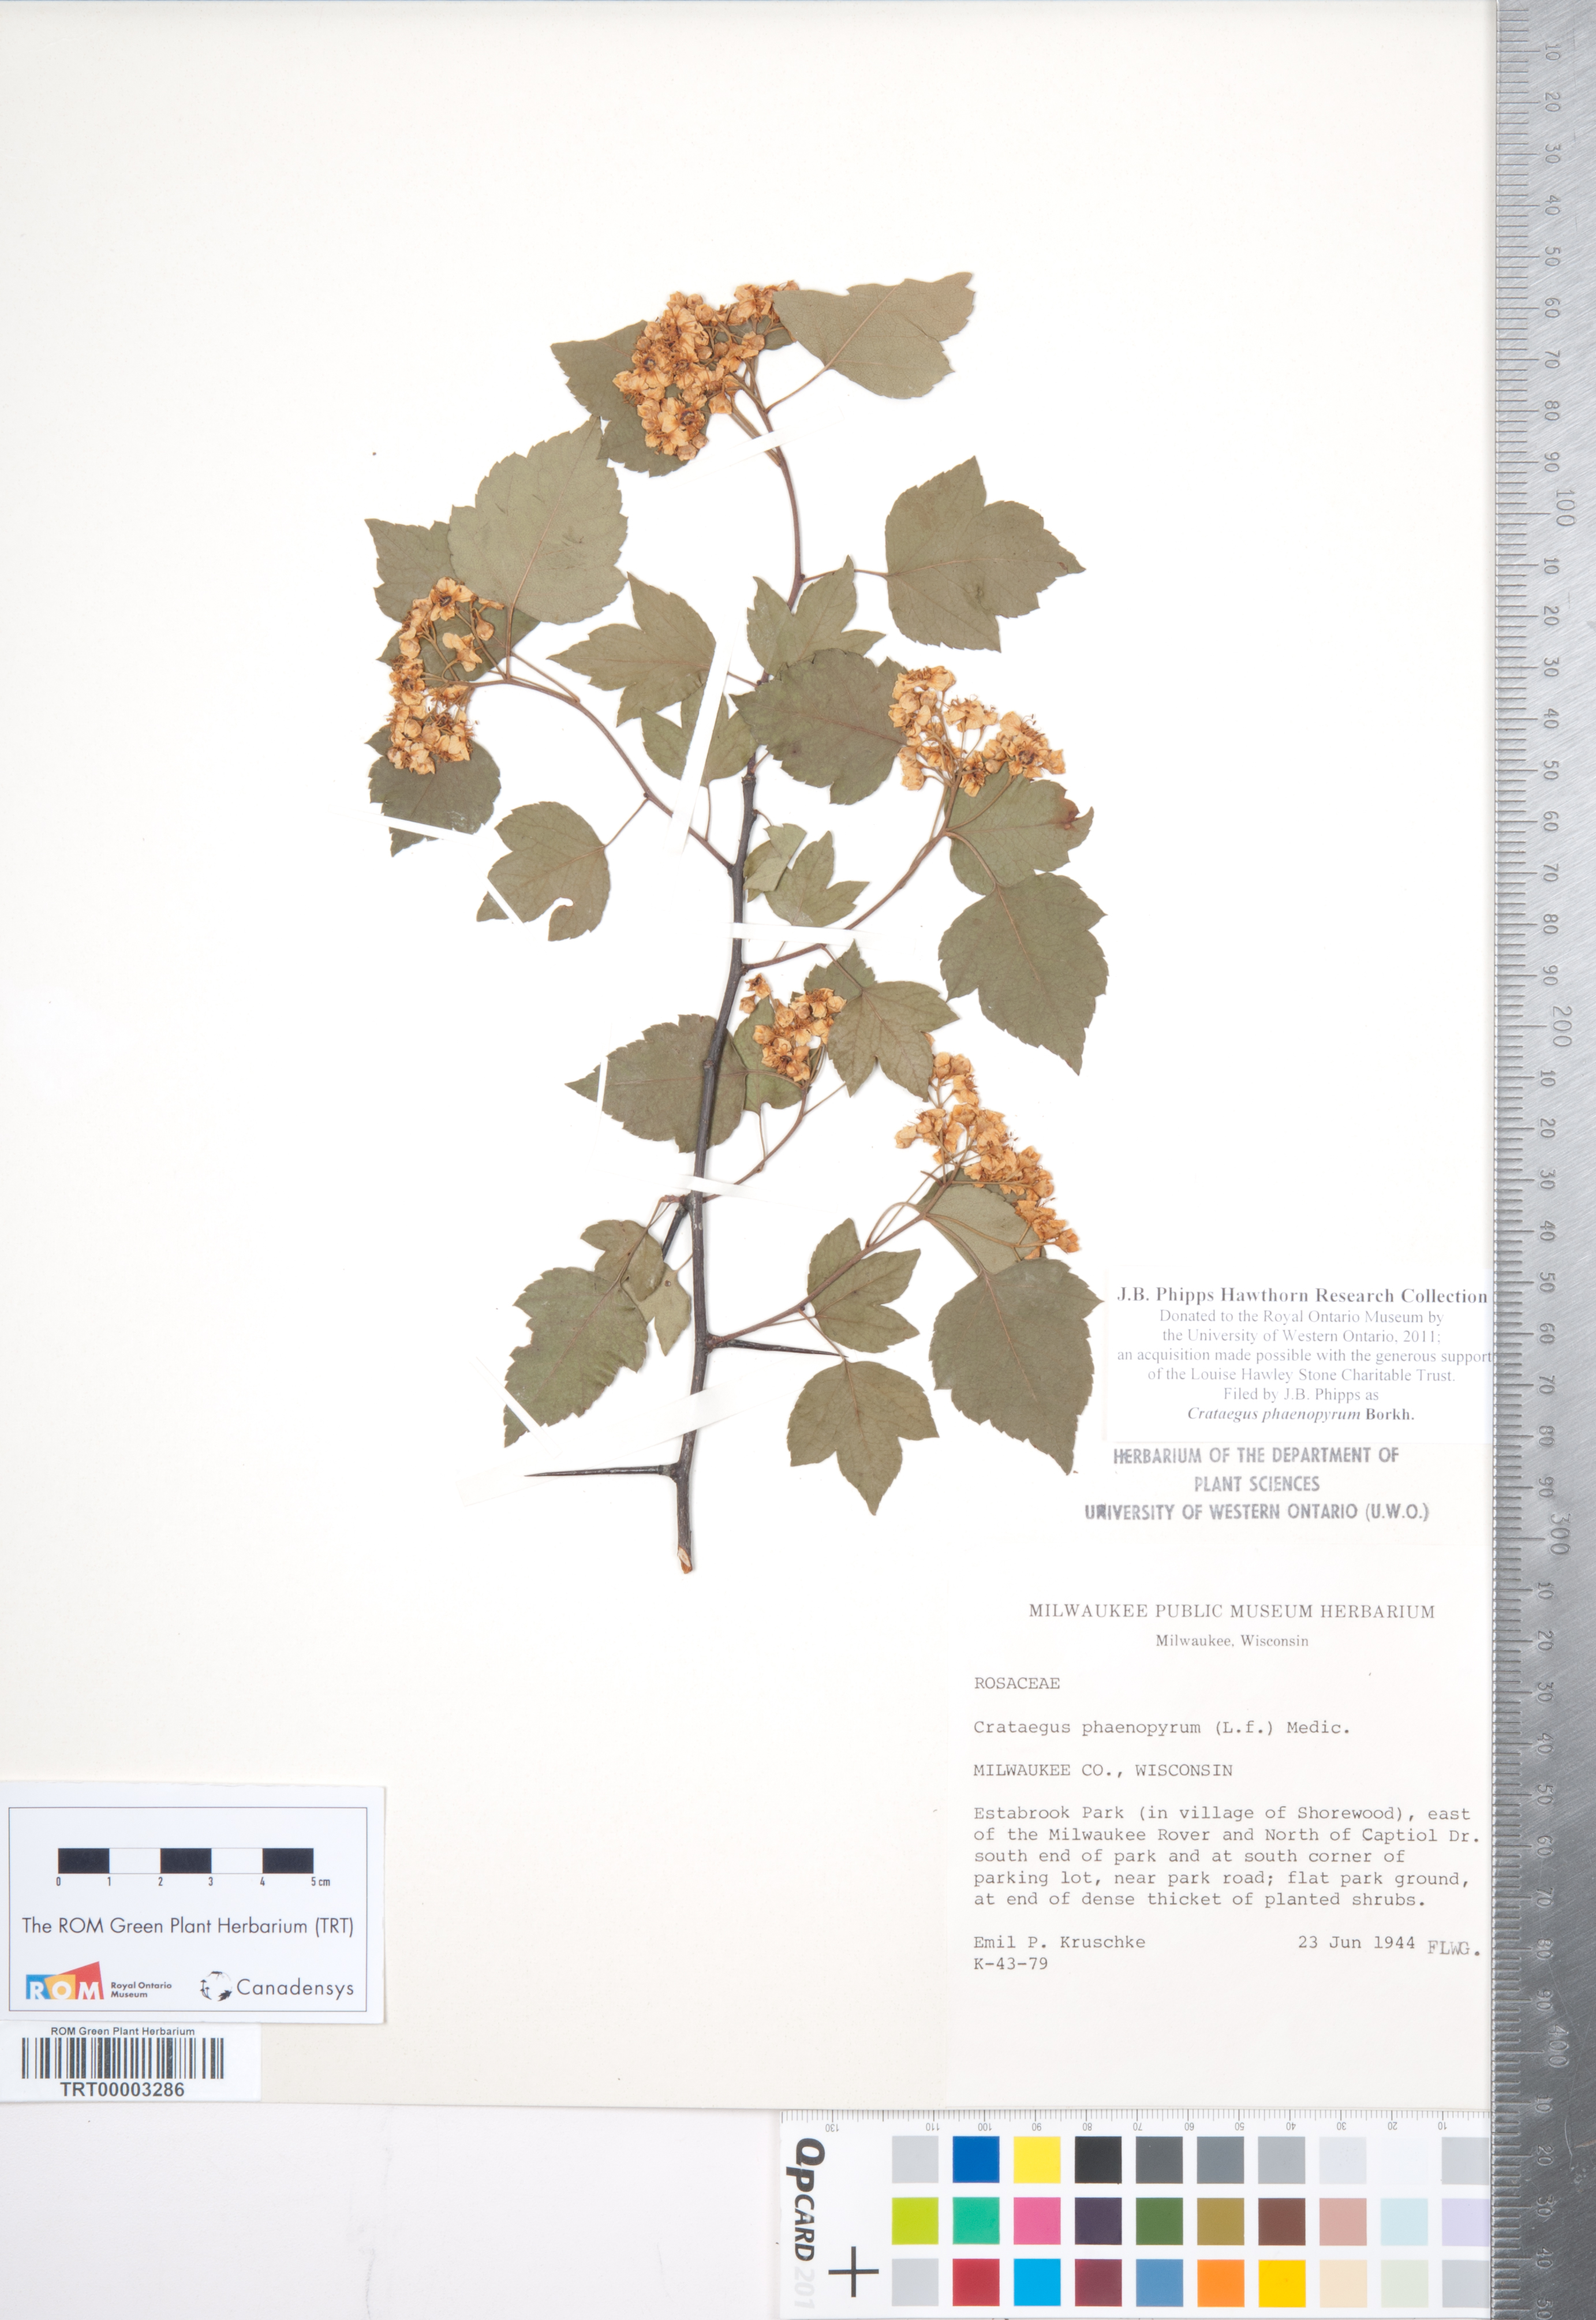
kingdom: Plantae
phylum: Tracheophyta
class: Magnoliopsida
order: Rosales
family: Rosaceae
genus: Crataegus
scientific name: Crataegus phaenopyrum
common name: Washington hawthorn
